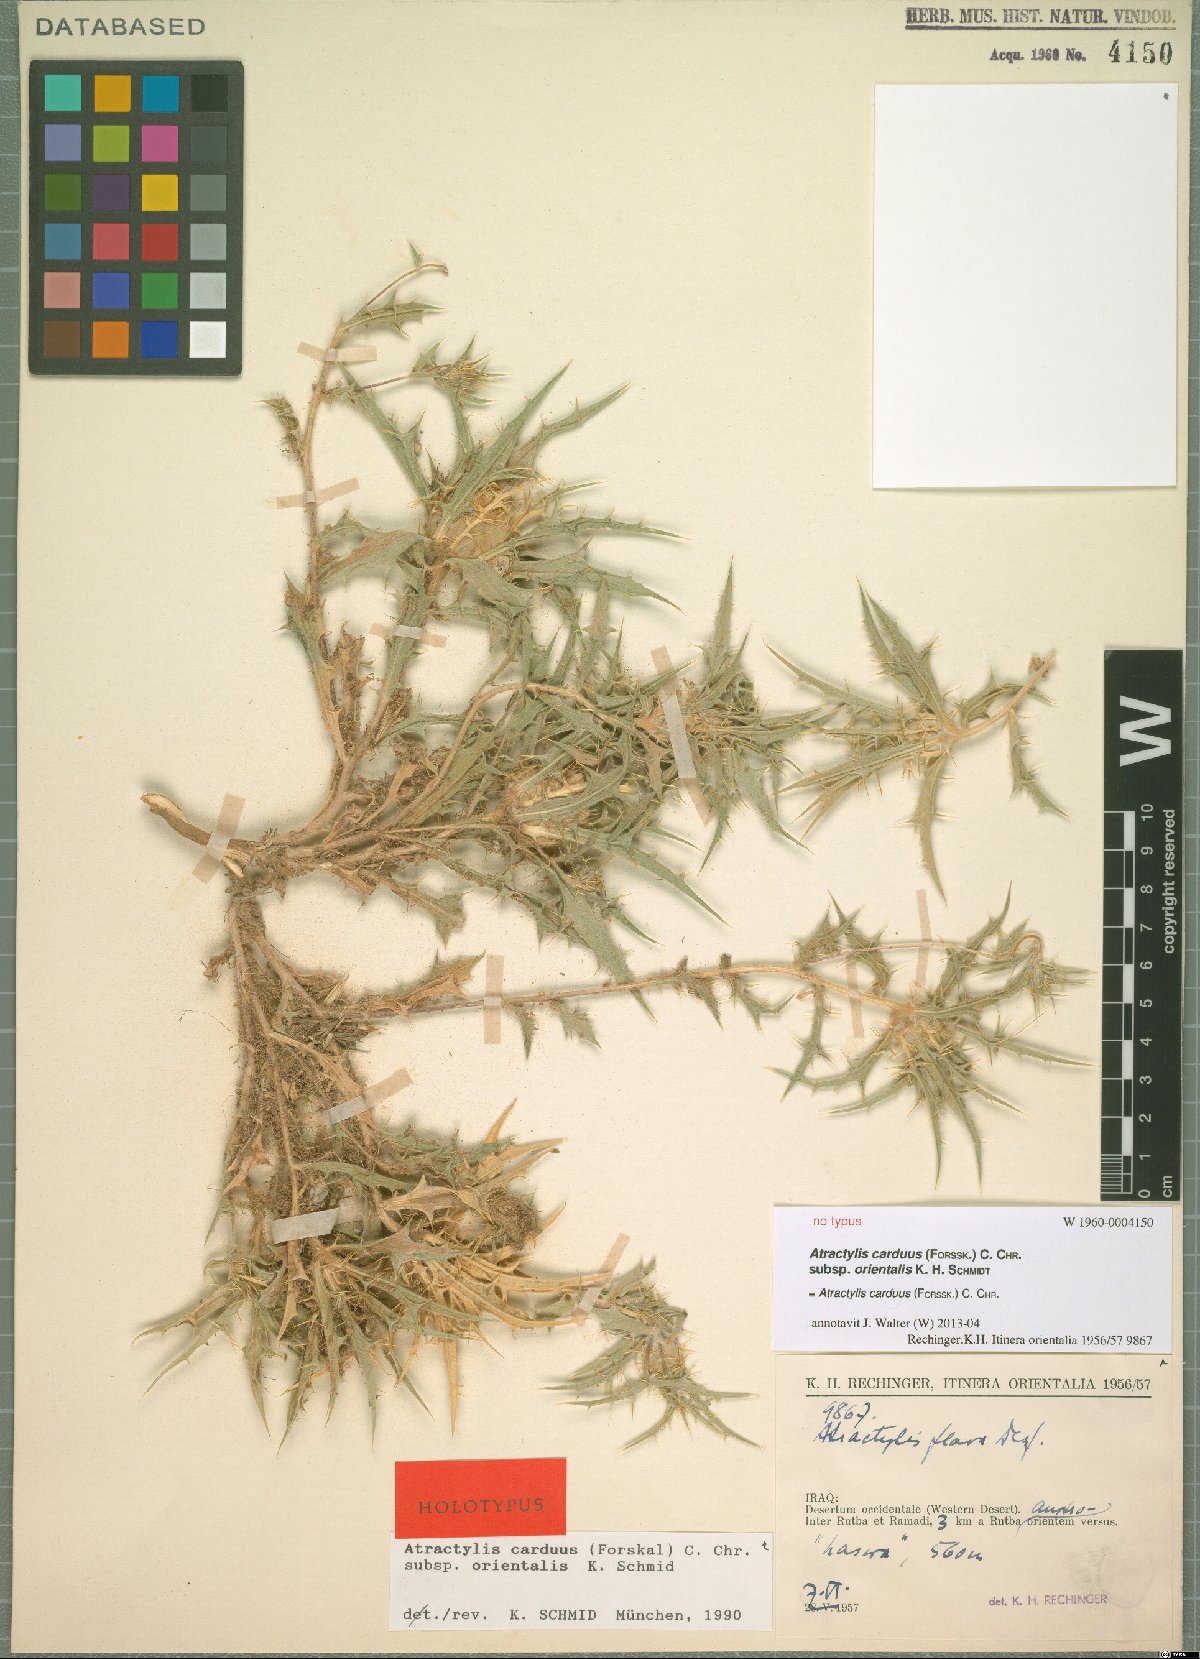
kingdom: Plantae
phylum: Tracheophyta
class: Magnoliopsida
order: Asterales
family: Asteraceae
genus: Atractylis
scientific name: Atractylis carduus
